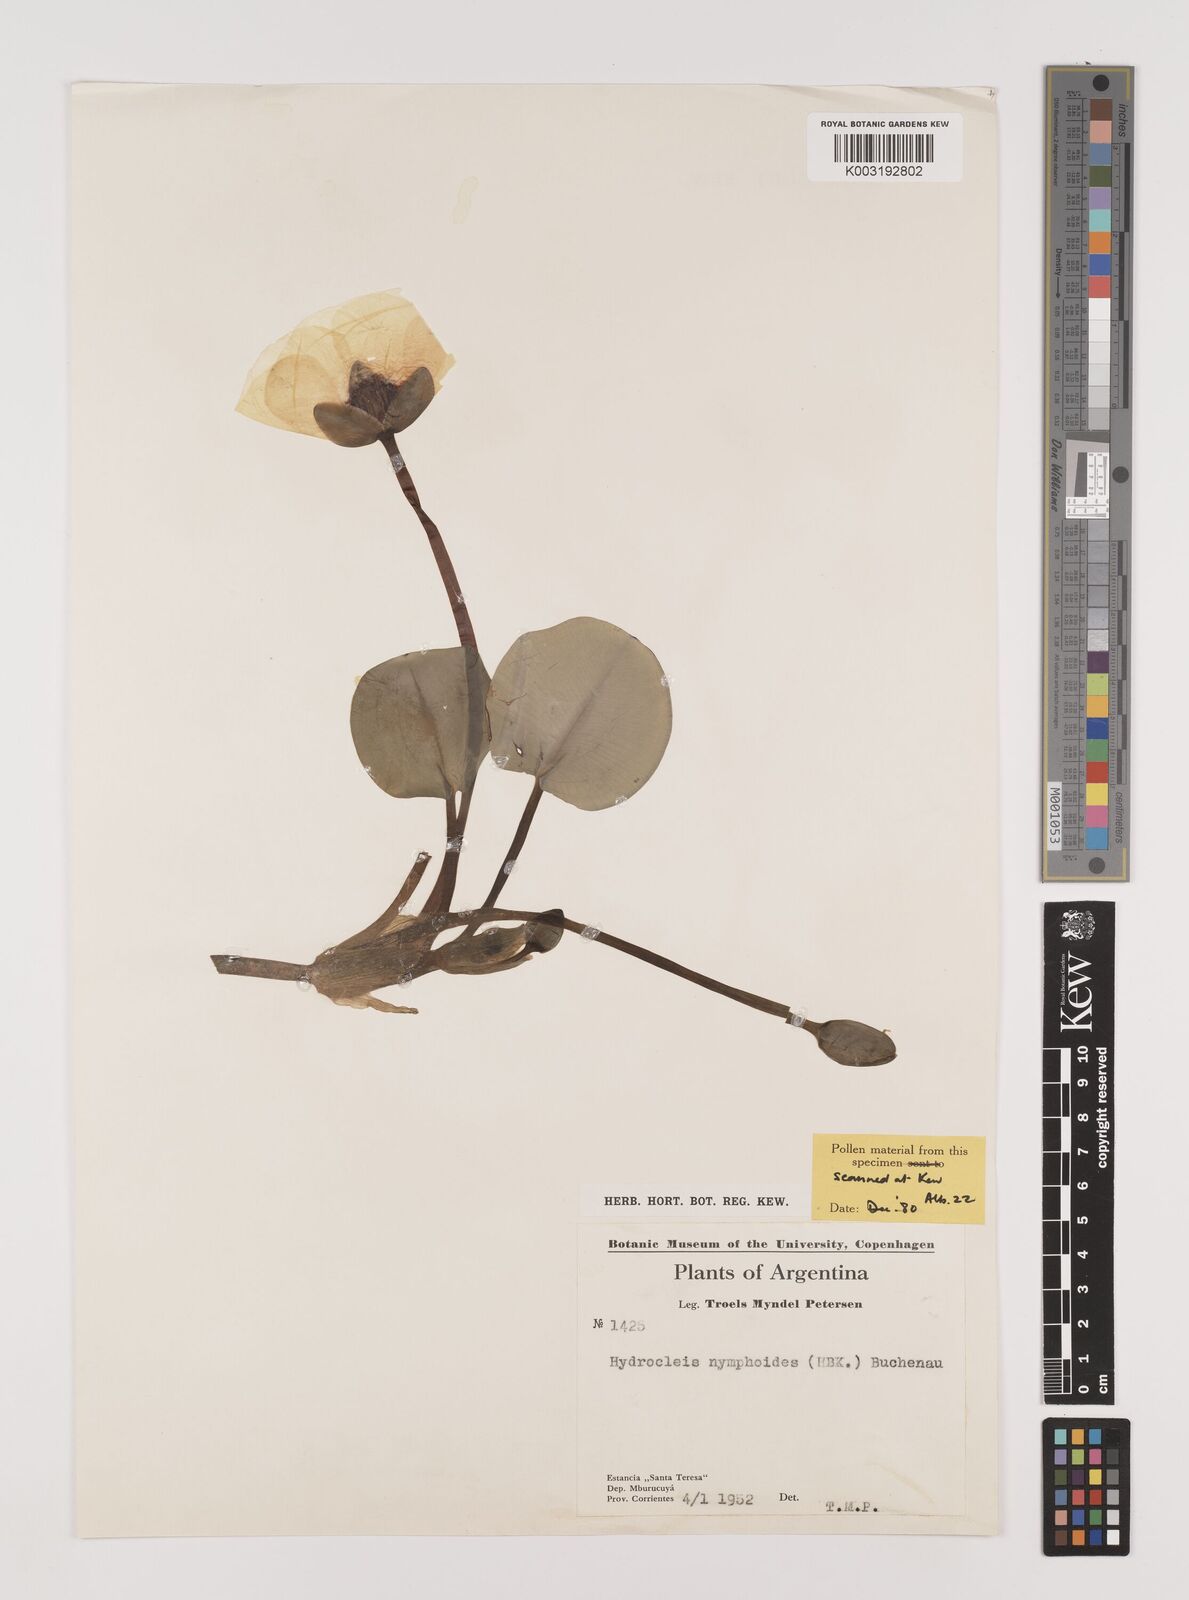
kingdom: Plantae
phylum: Tracheophyta
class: Liliopsida
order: Alismatales
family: Alismataceae
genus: Hydrocleys
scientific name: Hydrocleys nymphoides
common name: Water-poppy
